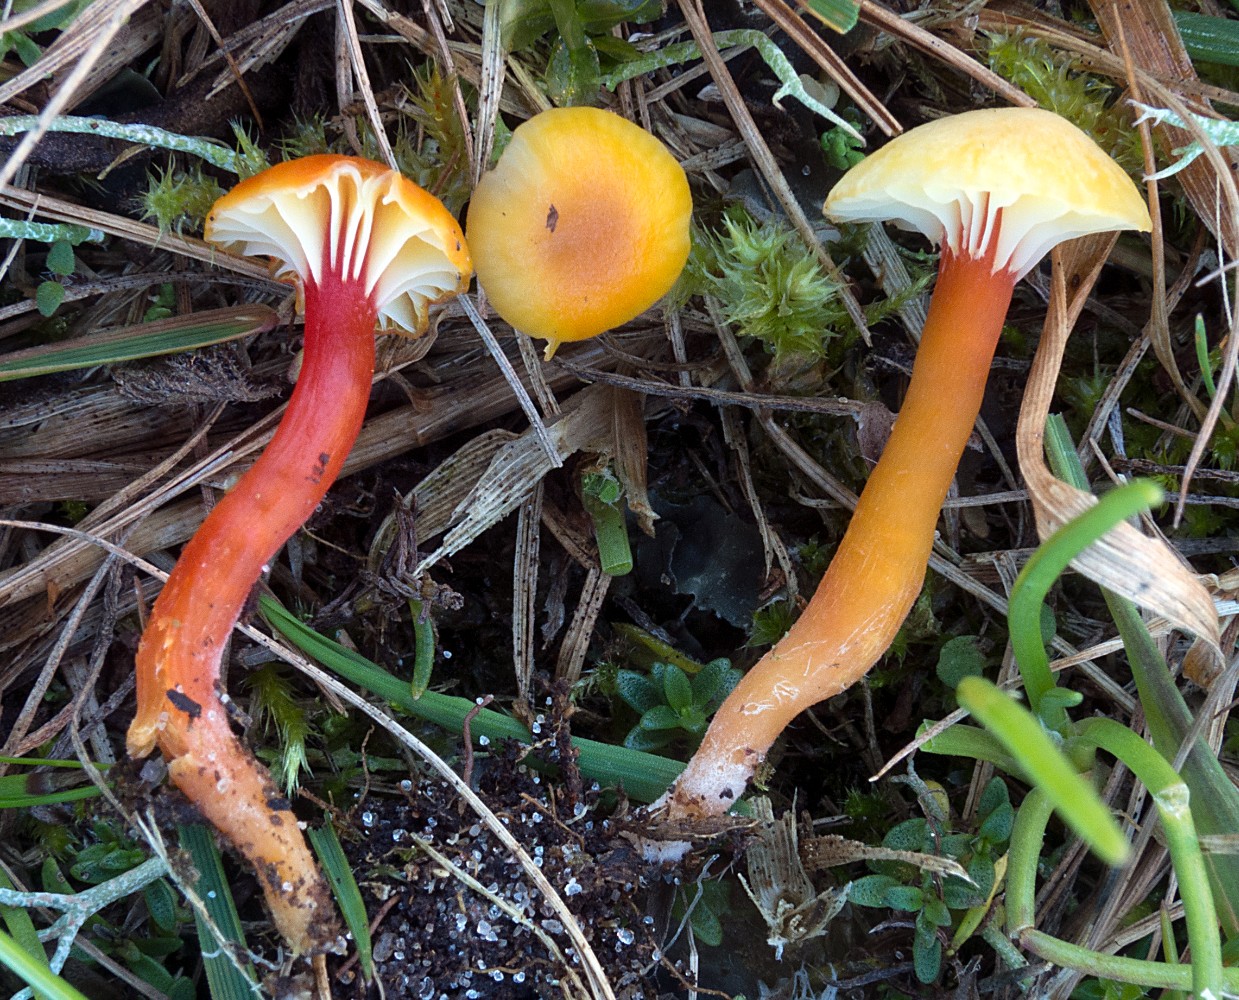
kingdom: Fungi
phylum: Basidiomycota
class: Agaricomycetes
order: Agaricales
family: Hygrophoraceae
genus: Hygrocybe
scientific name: Hygrocybe insipida
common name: liden vokshat
